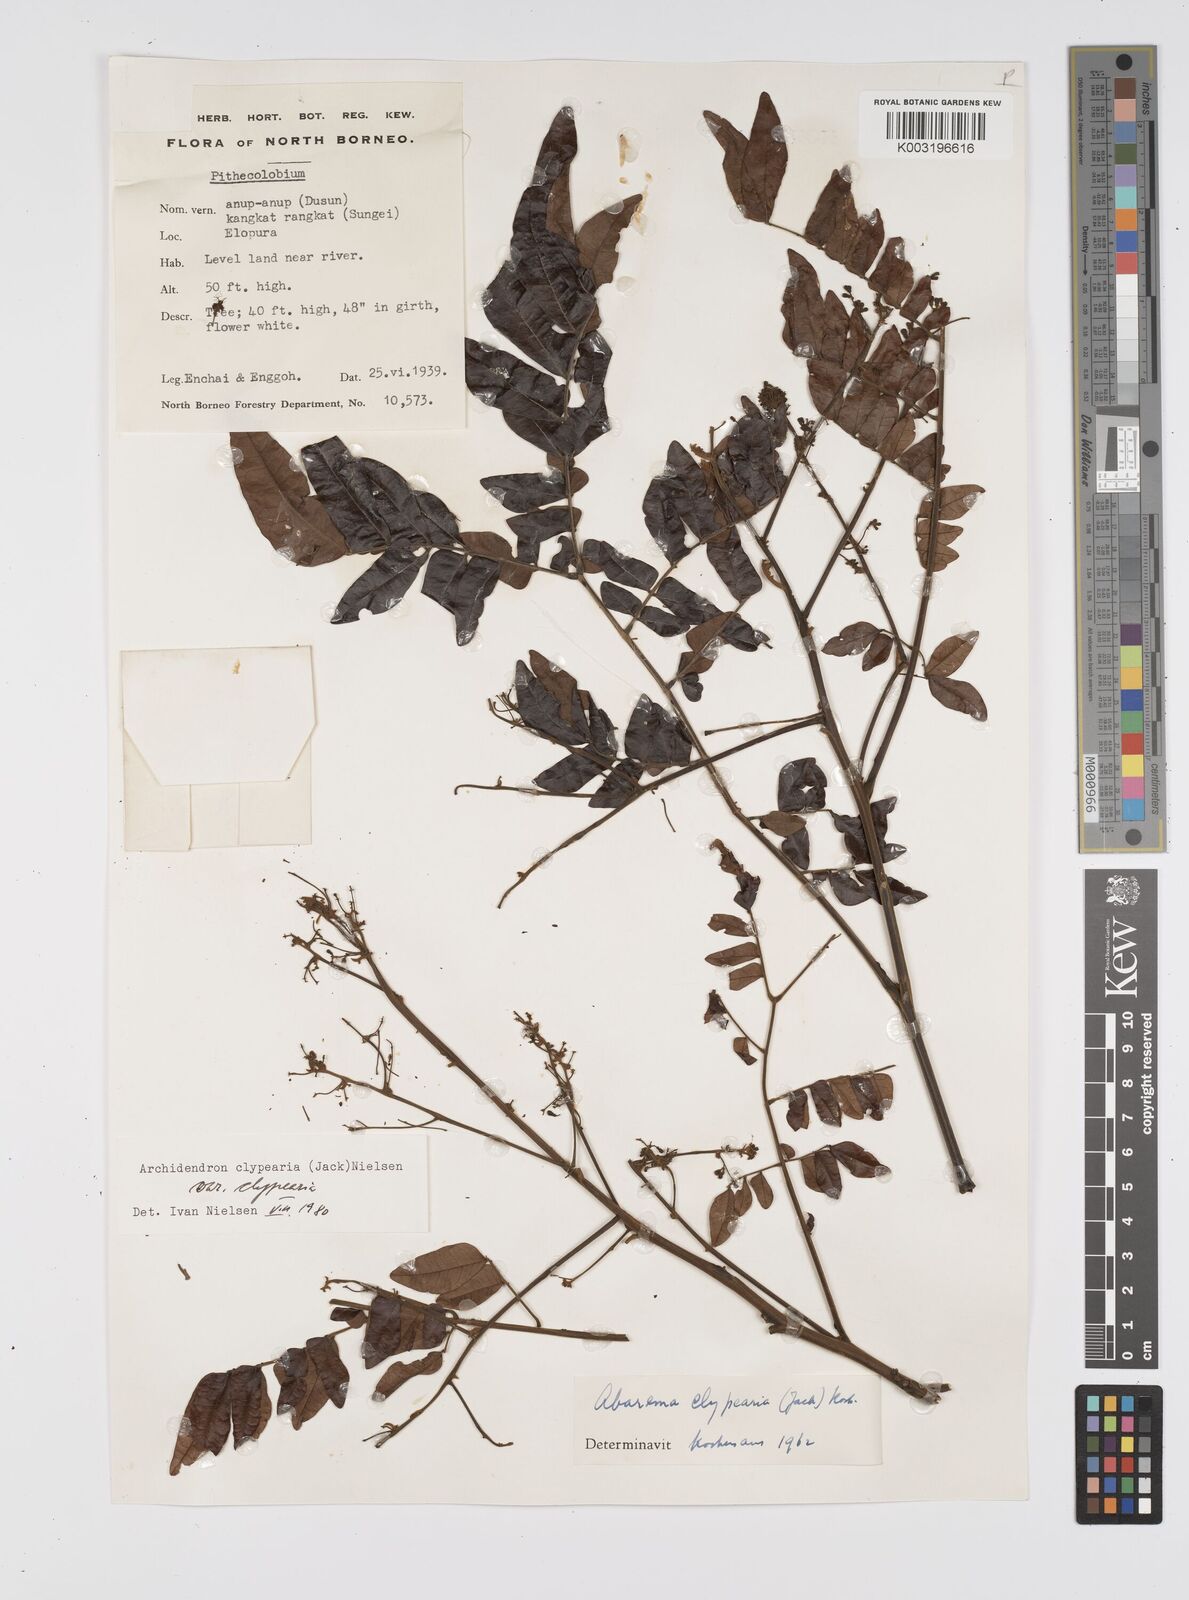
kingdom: Plantae
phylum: Tracheophyta
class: Magnoliopsida
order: Fabales
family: Fabaceae
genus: Archidendron
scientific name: Archidendron clypearia
